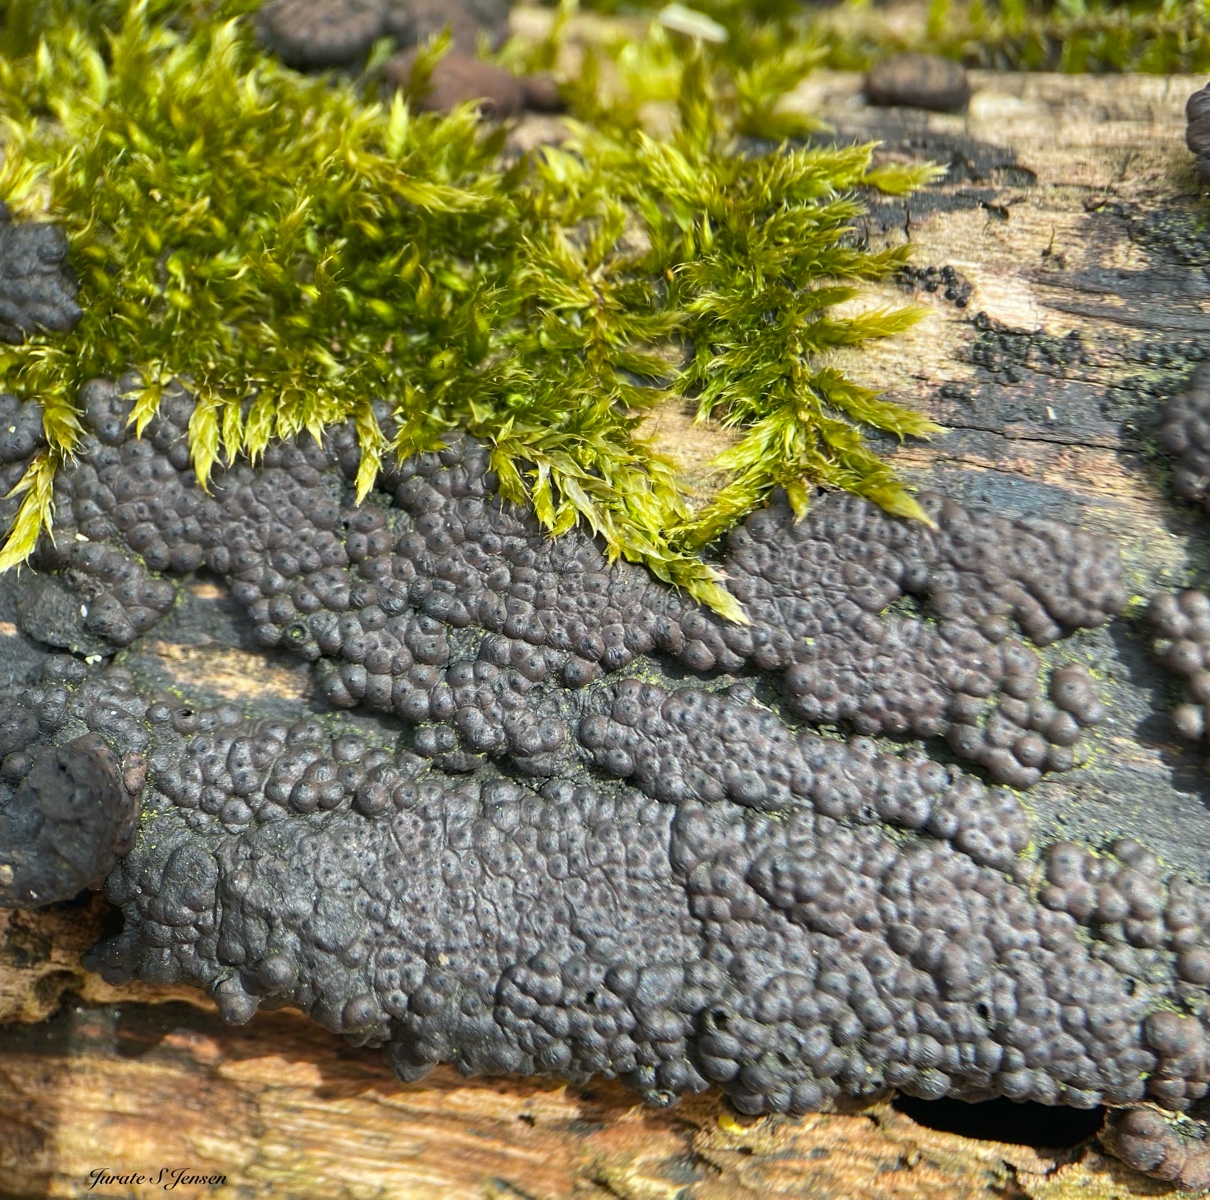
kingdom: Fungi
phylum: Ascomycota
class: Sordariomycetes
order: Xylariales
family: Hypoxylaceae
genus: Jackrogersella
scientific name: Jackrogersella multiformis
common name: foranderlig kulbær
